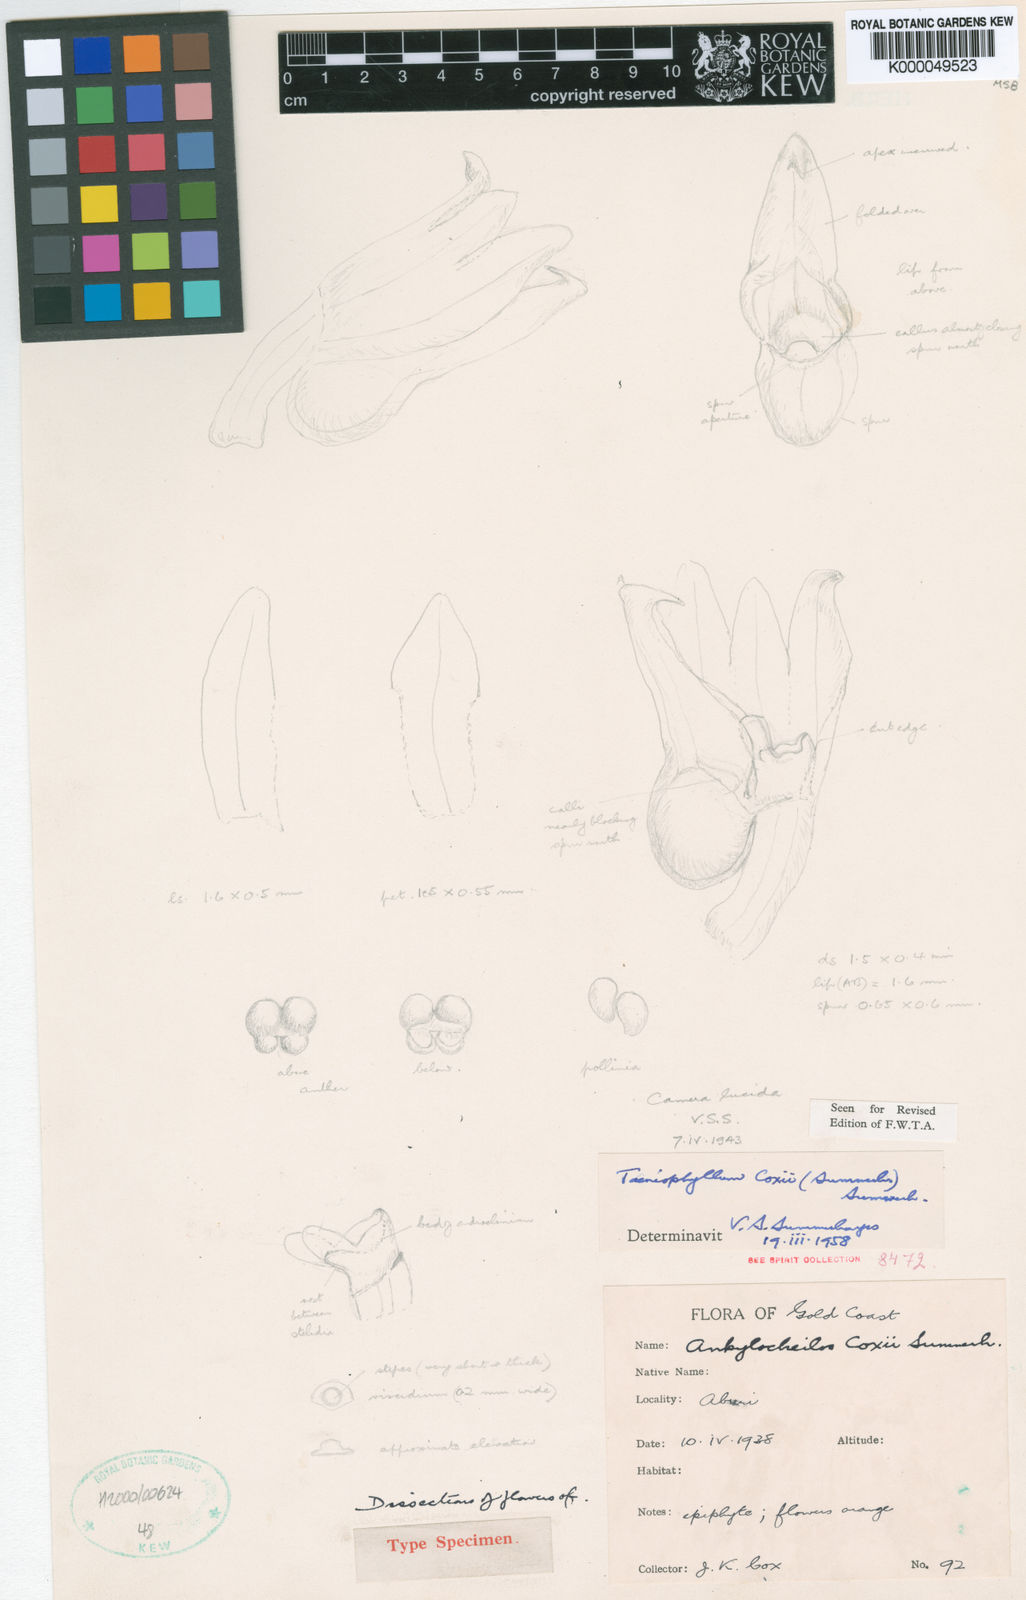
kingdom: Plantae
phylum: Tracheophyta
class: Liliopsida
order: Asparagales
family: Orchidaceae
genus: Taeniophyllum
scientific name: Taeniophyllum coxii
